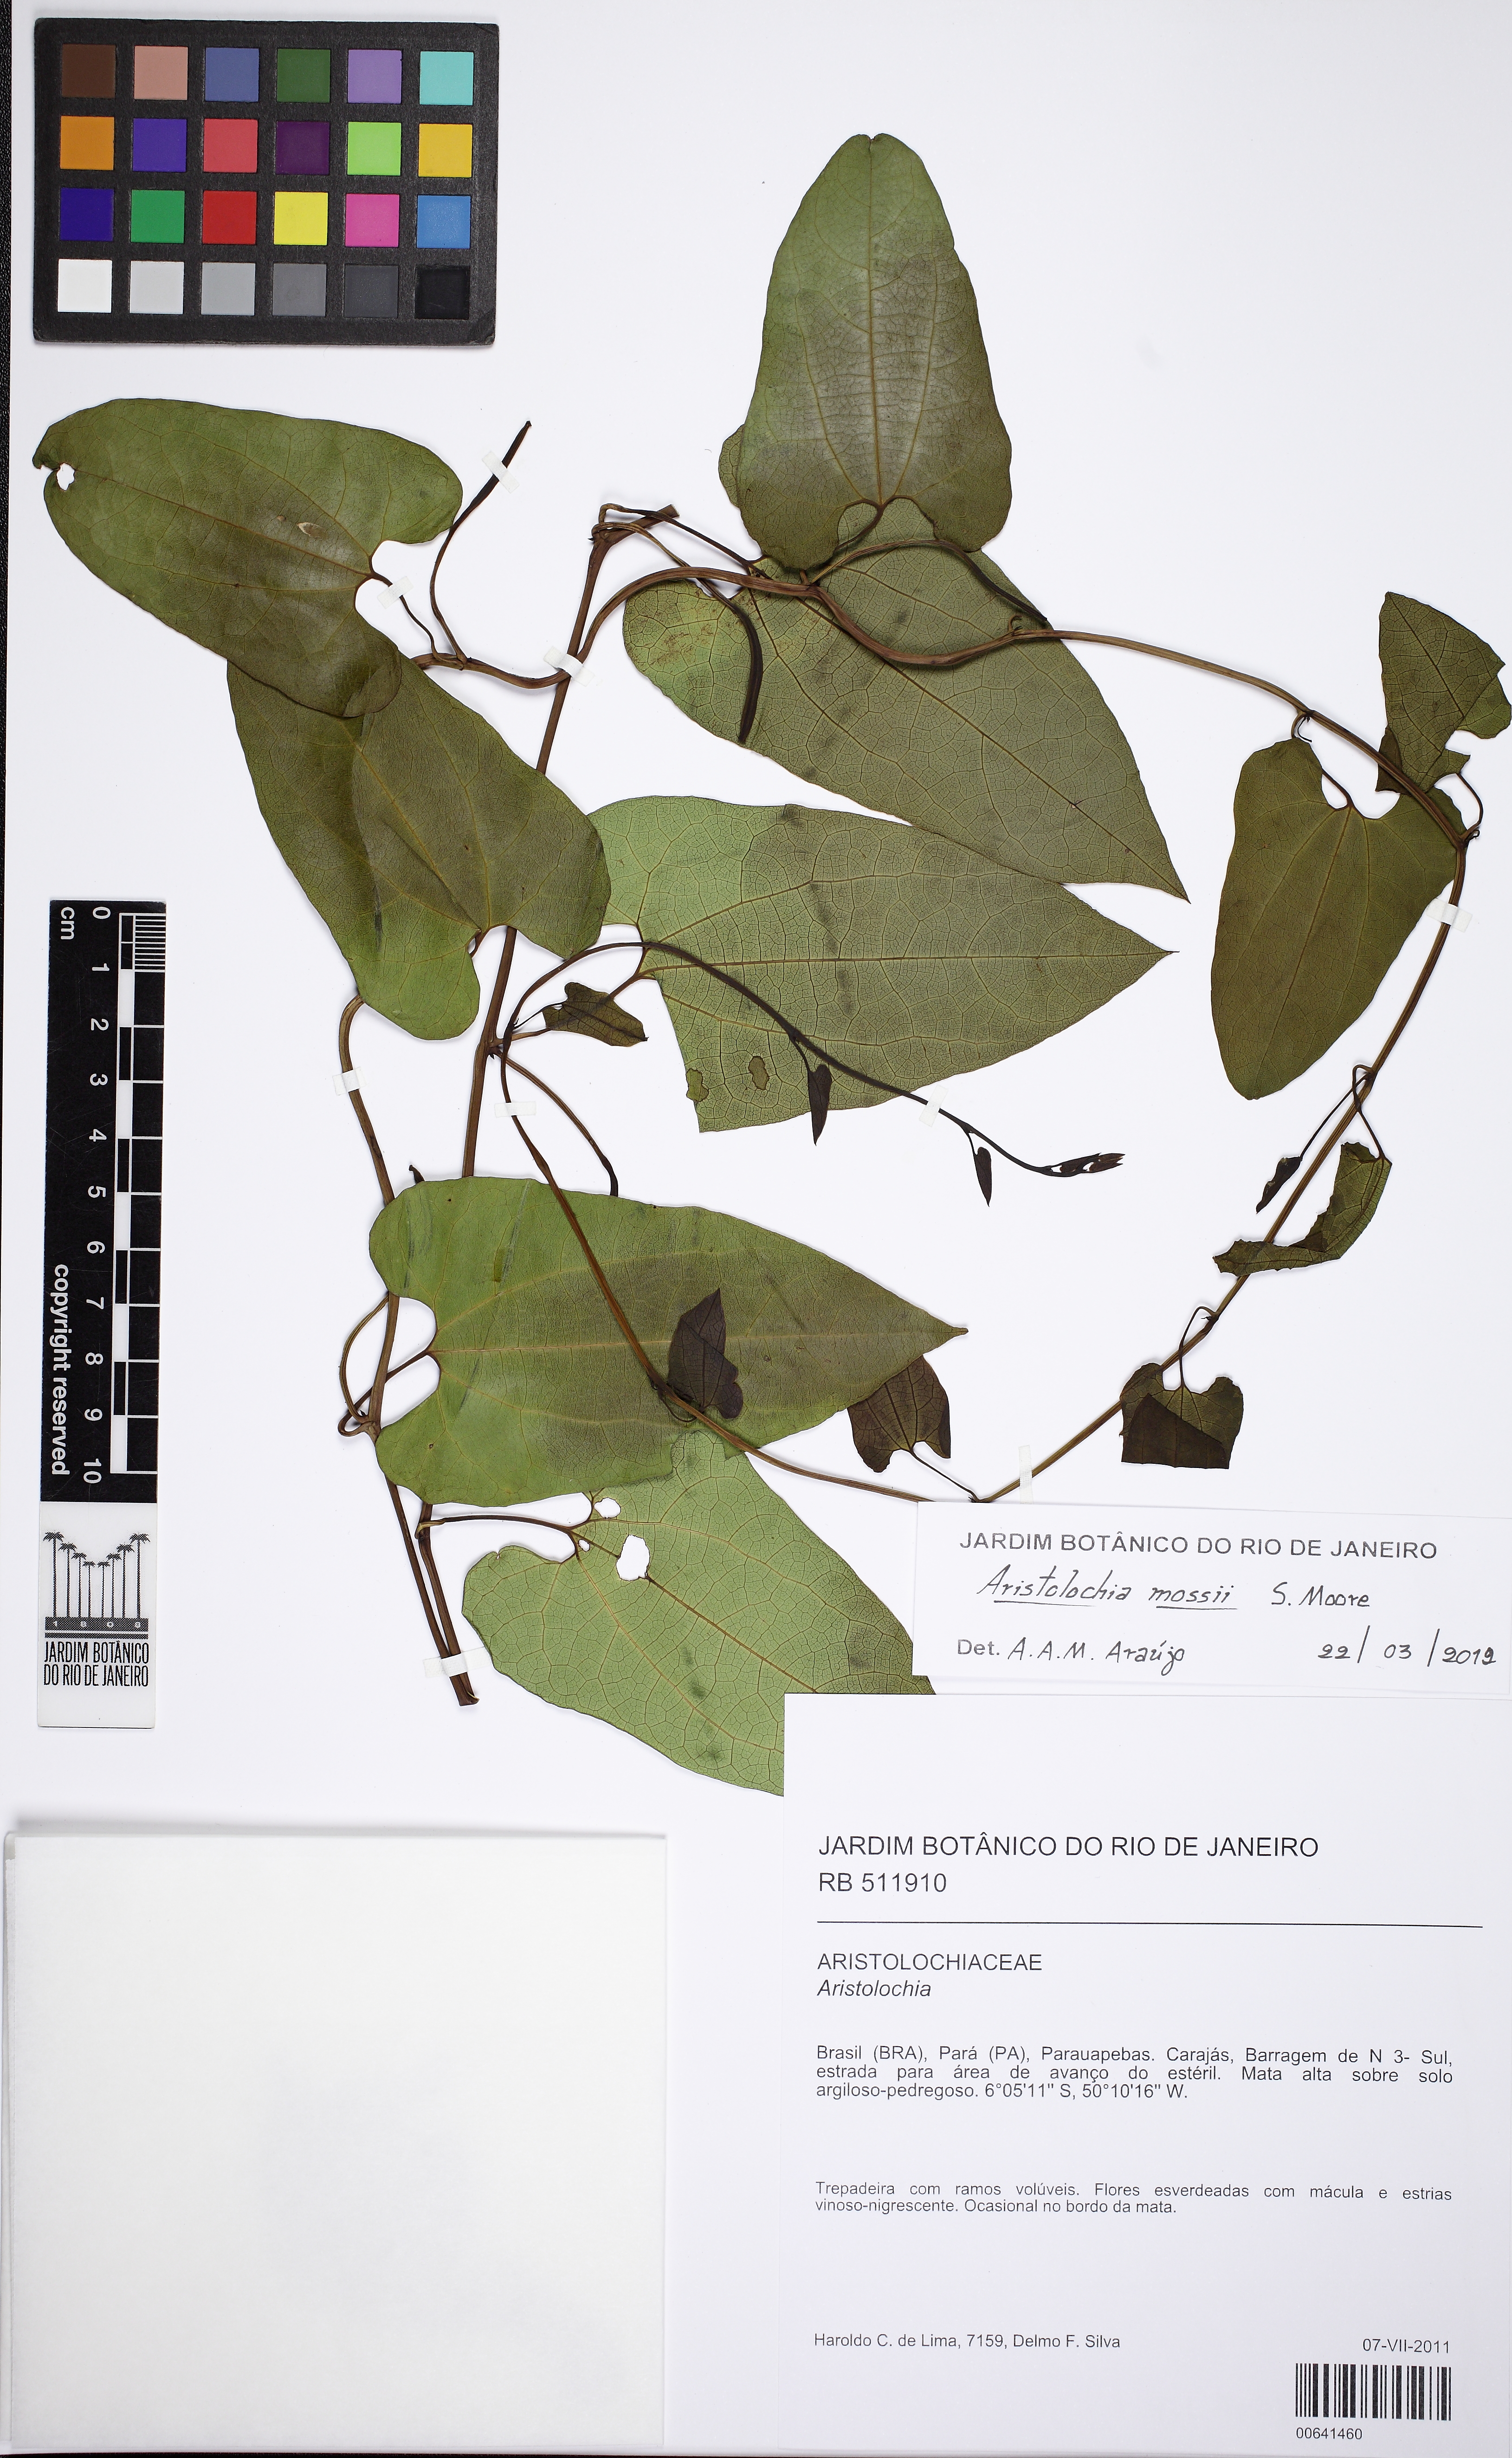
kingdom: Plantae
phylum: Tracheophyta
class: Magnoliopsida
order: Piperales
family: Aristolochiaceae
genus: Aristolochia
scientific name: Aristolochia mossii
